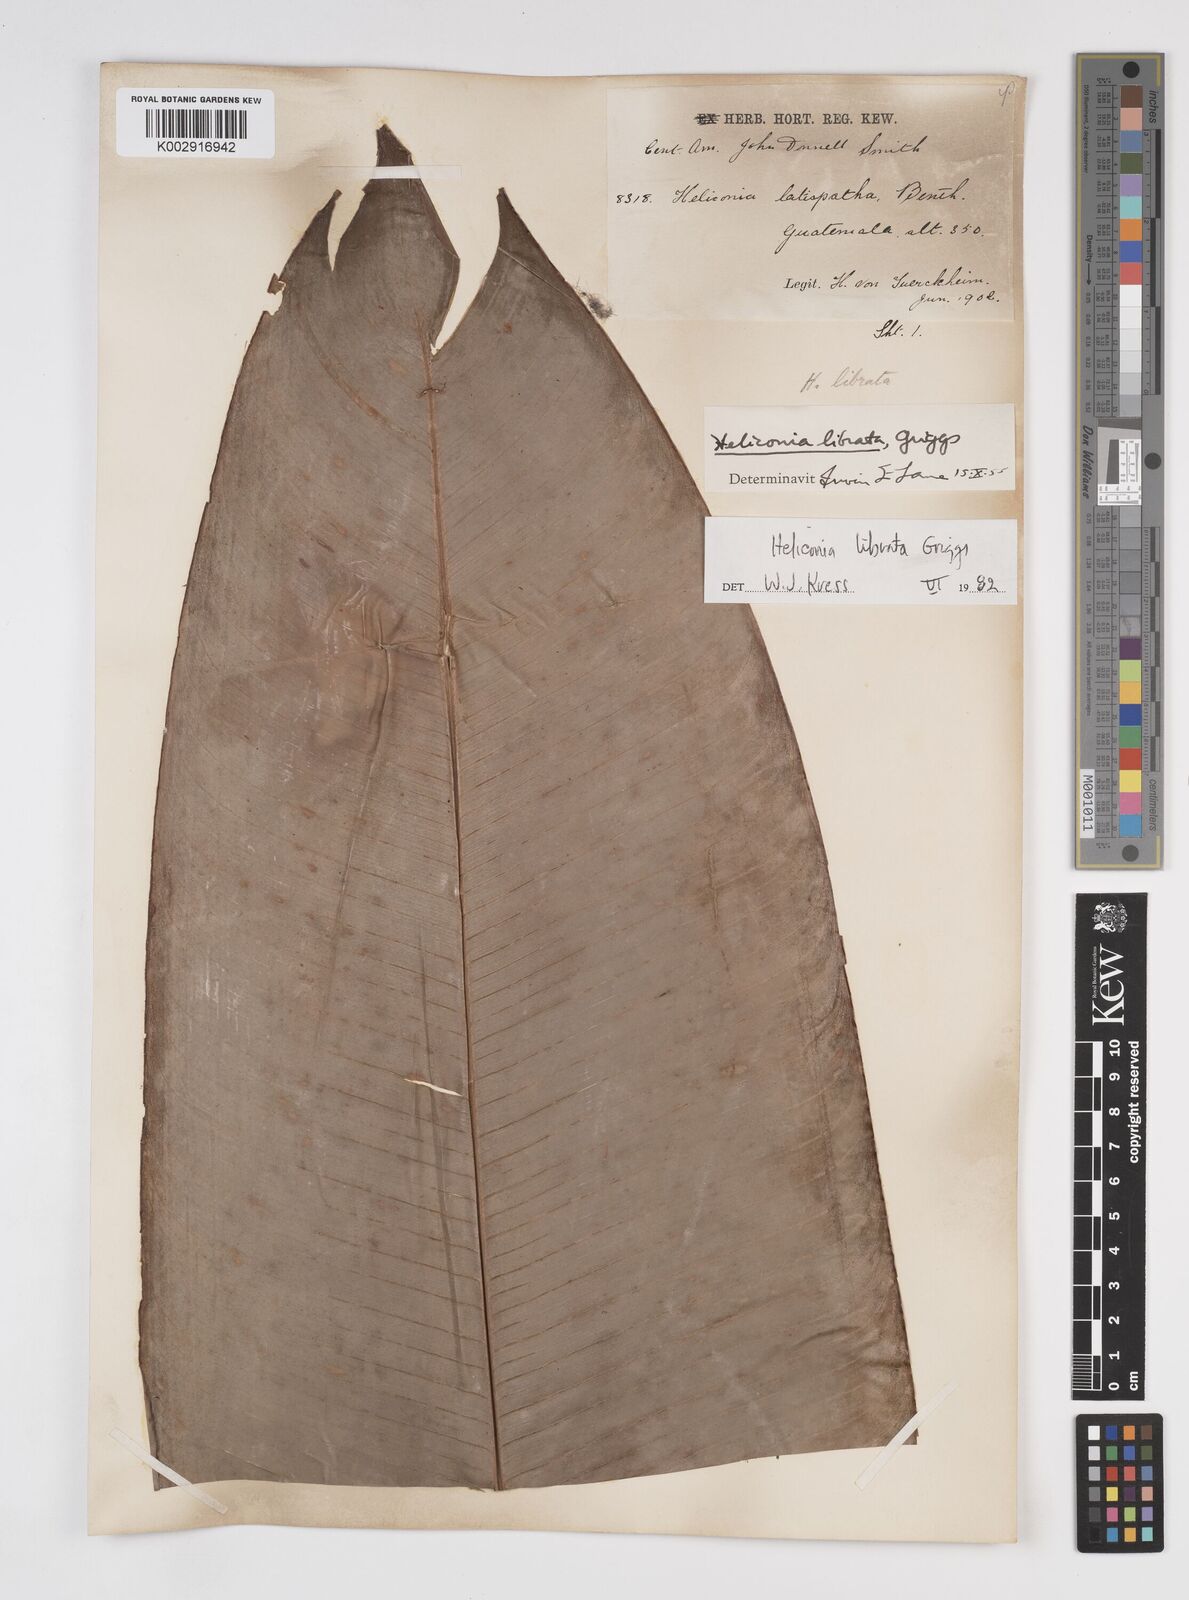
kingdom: Plantae
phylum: Tracheophyta
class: Liliopsida
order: Zingiberales
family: Heliconiaceae
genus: Heliconia
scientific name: Heliconia librata
